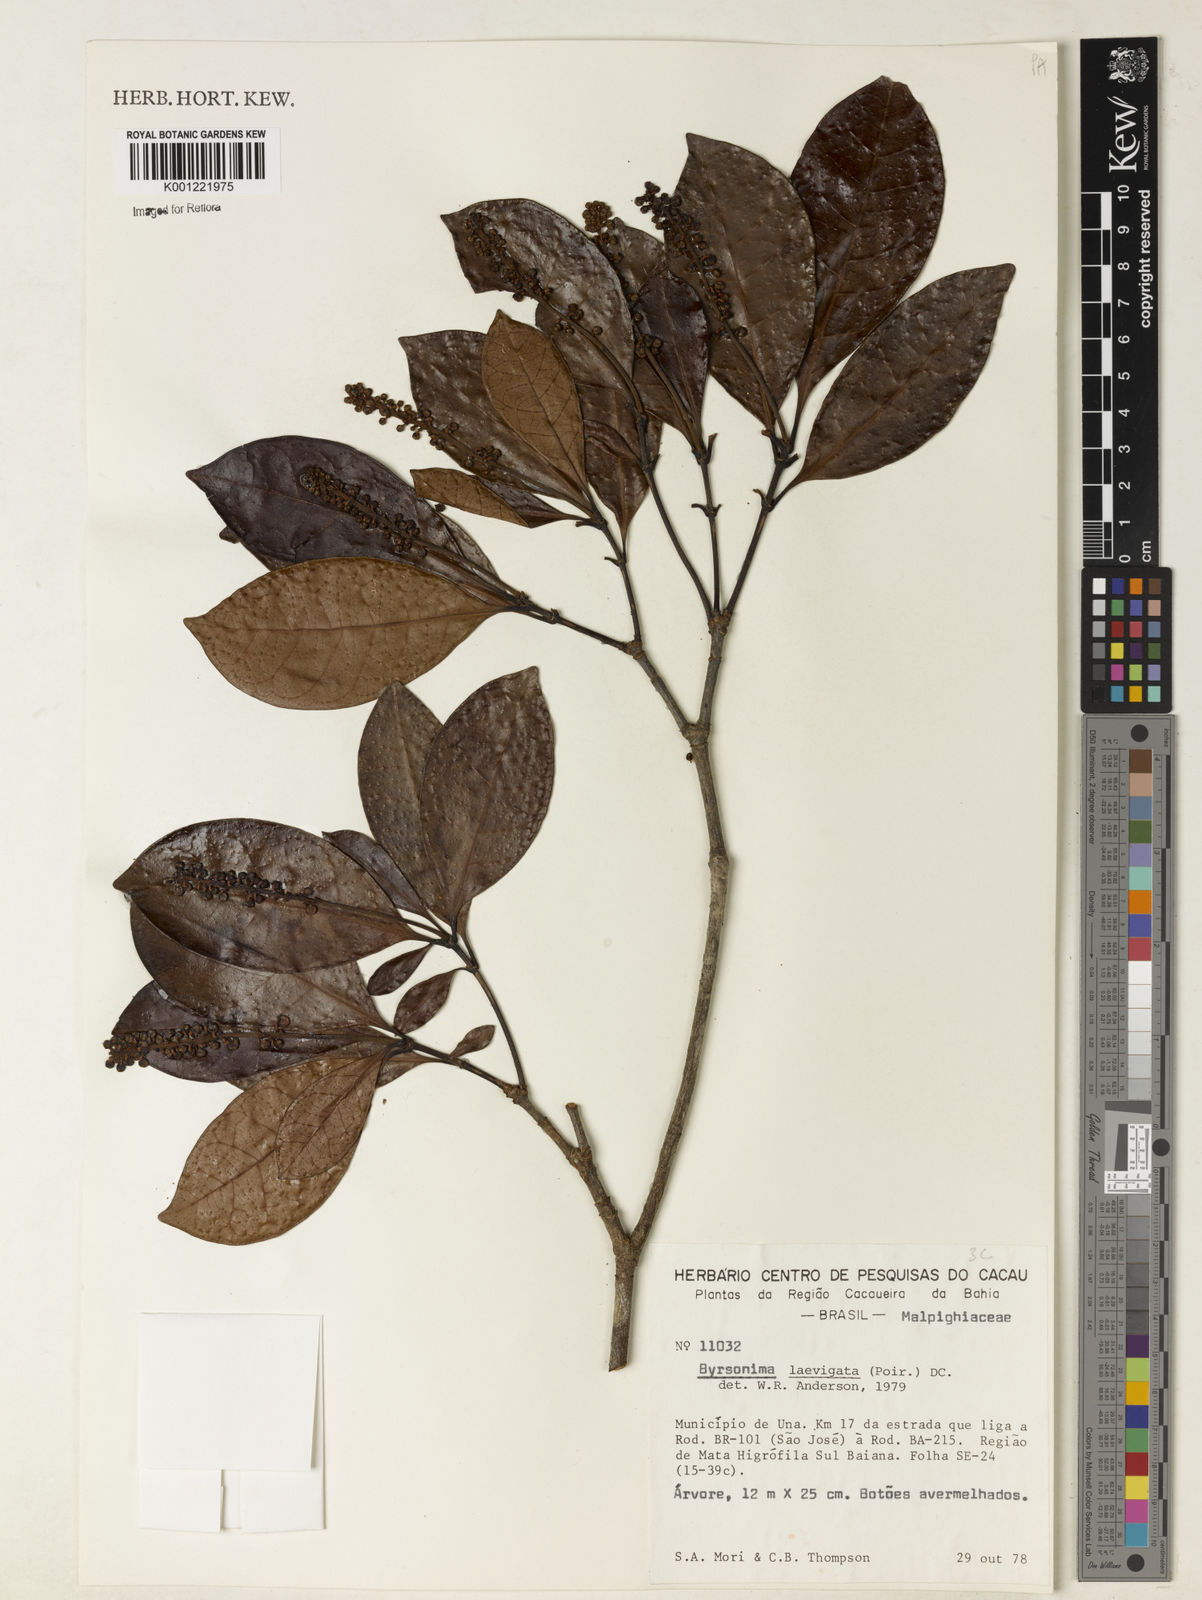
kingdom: Plantae
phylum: Tracheophyta
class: Magnoliopsida
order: Malpighiales
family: Malpighiaceae
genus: Byrsonima
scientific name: Byrsonima laevigata
